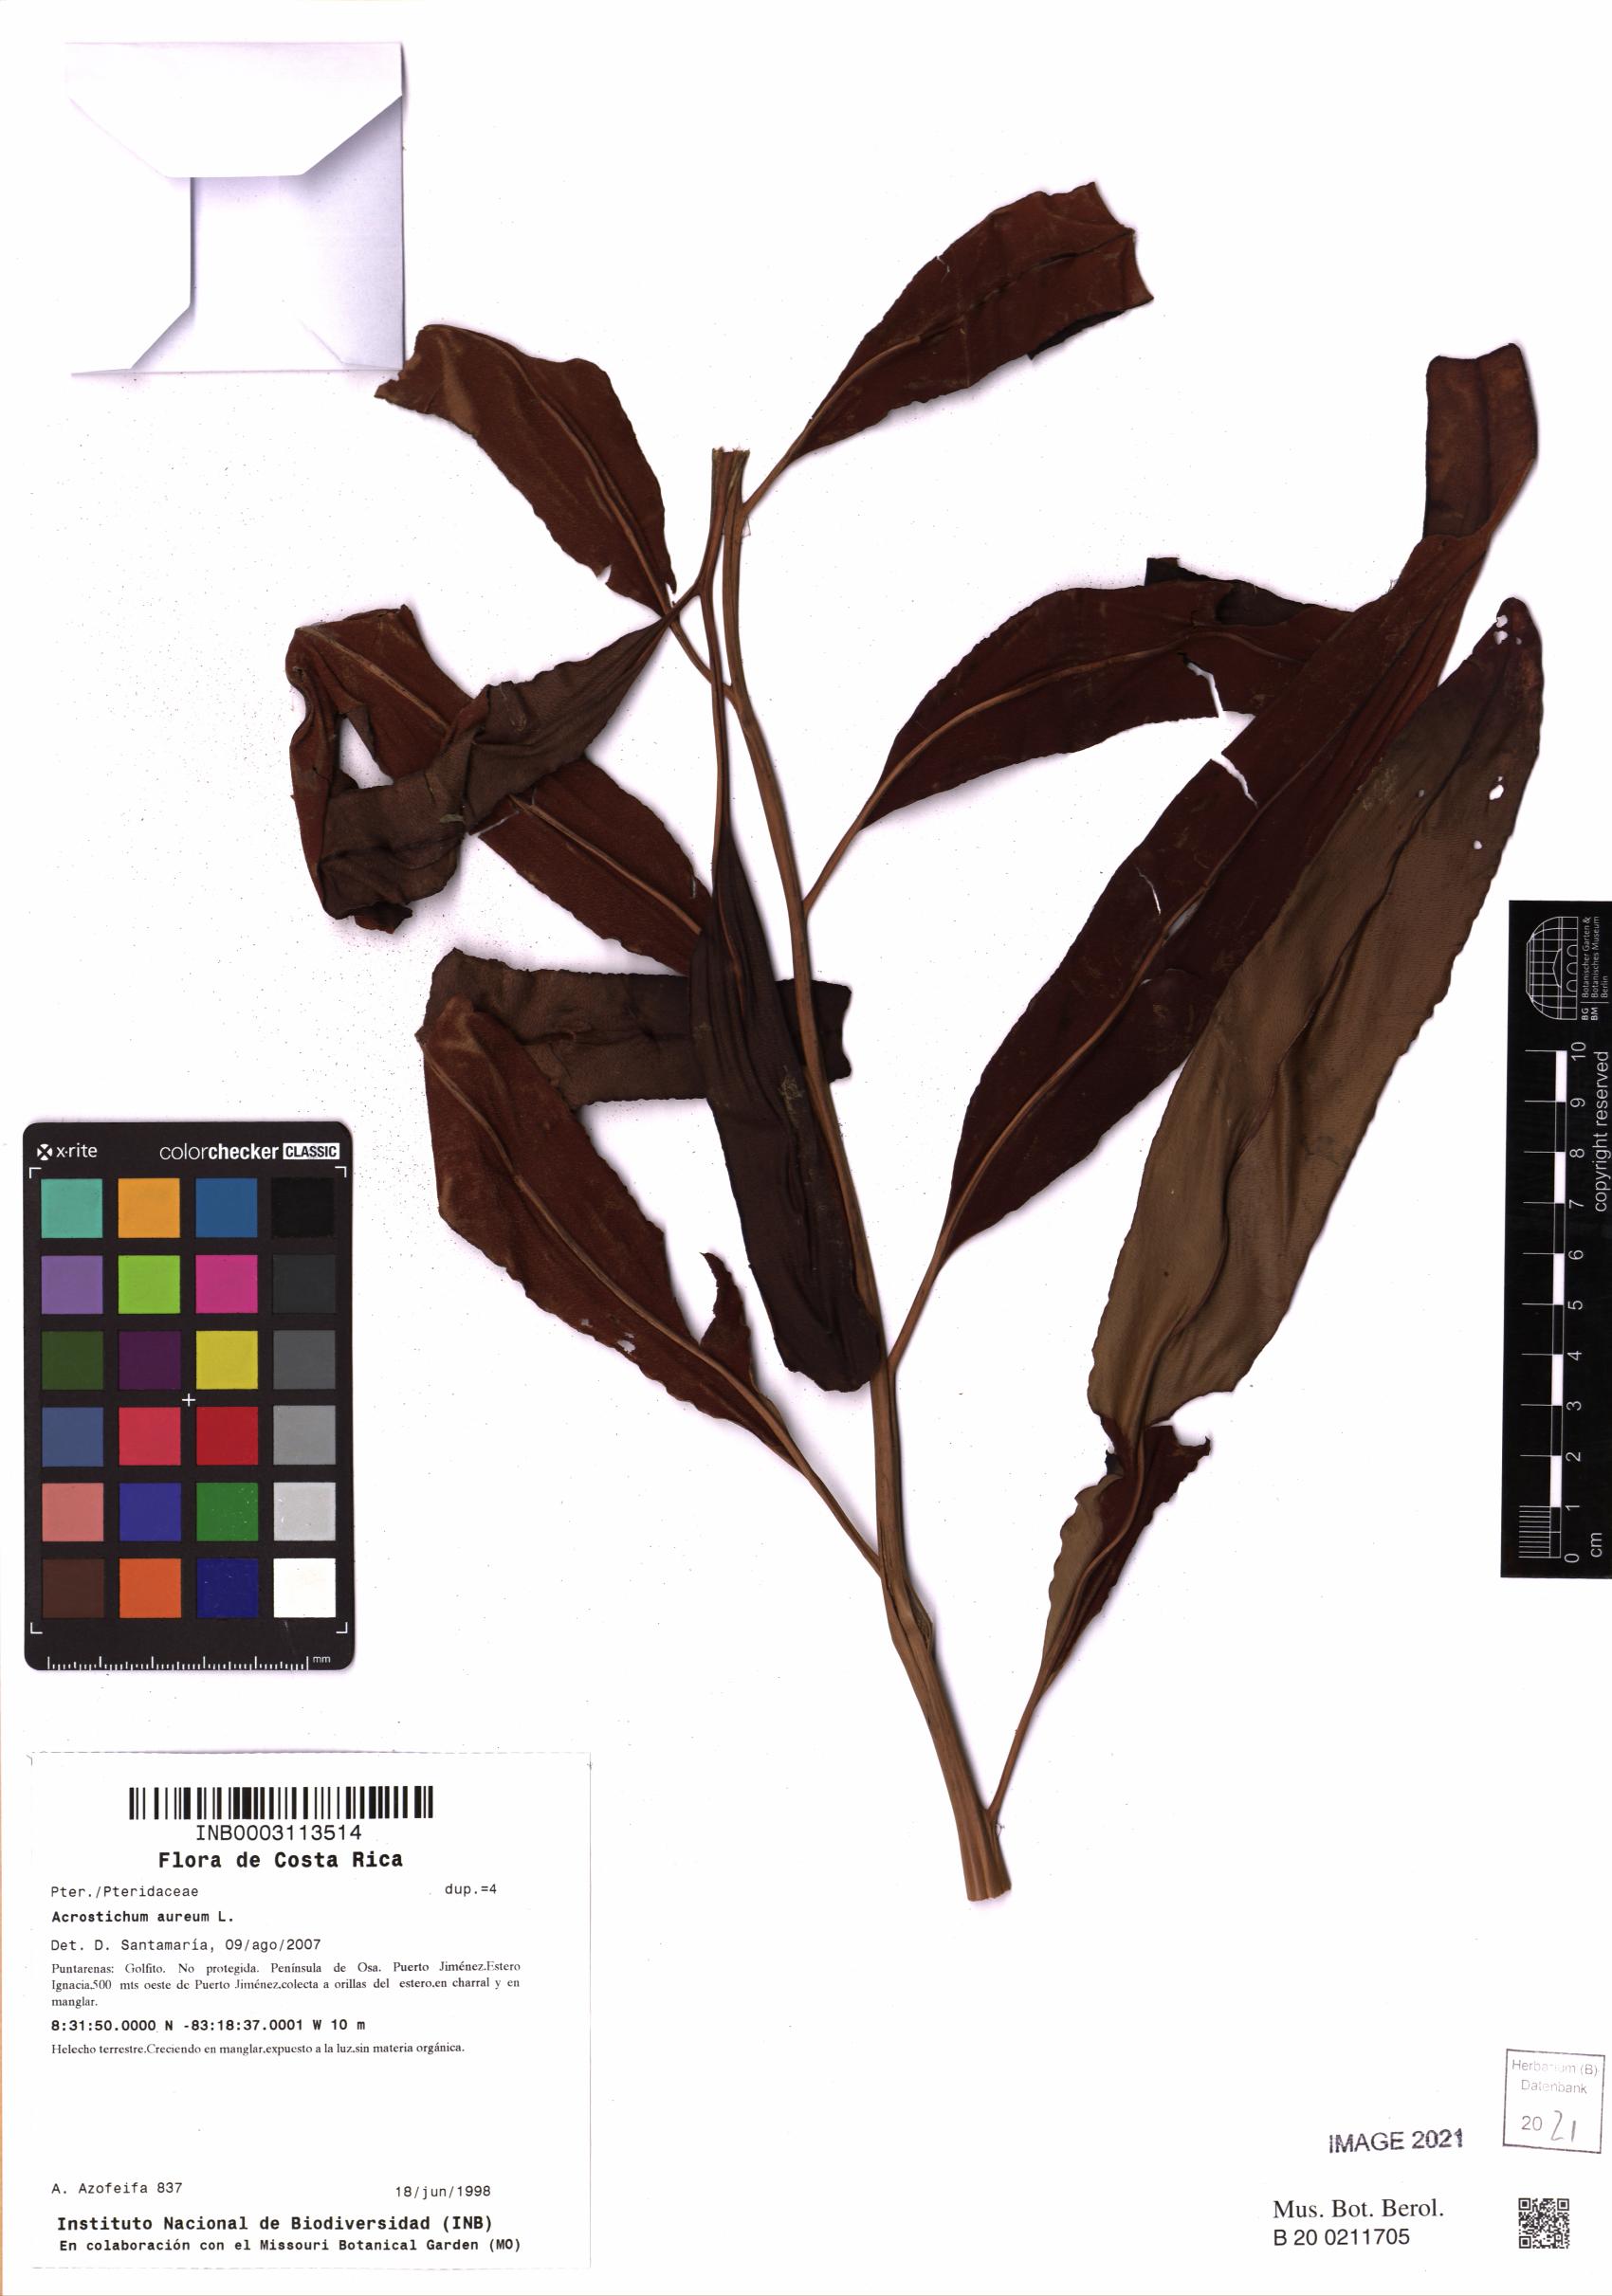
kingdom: Plantae
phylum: Tracheophyta
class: Polypodiopsida
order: Polypodiales
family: Pteridaceae
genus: Acrostichum
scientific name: Acrostichum aureum
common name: Leather fern
